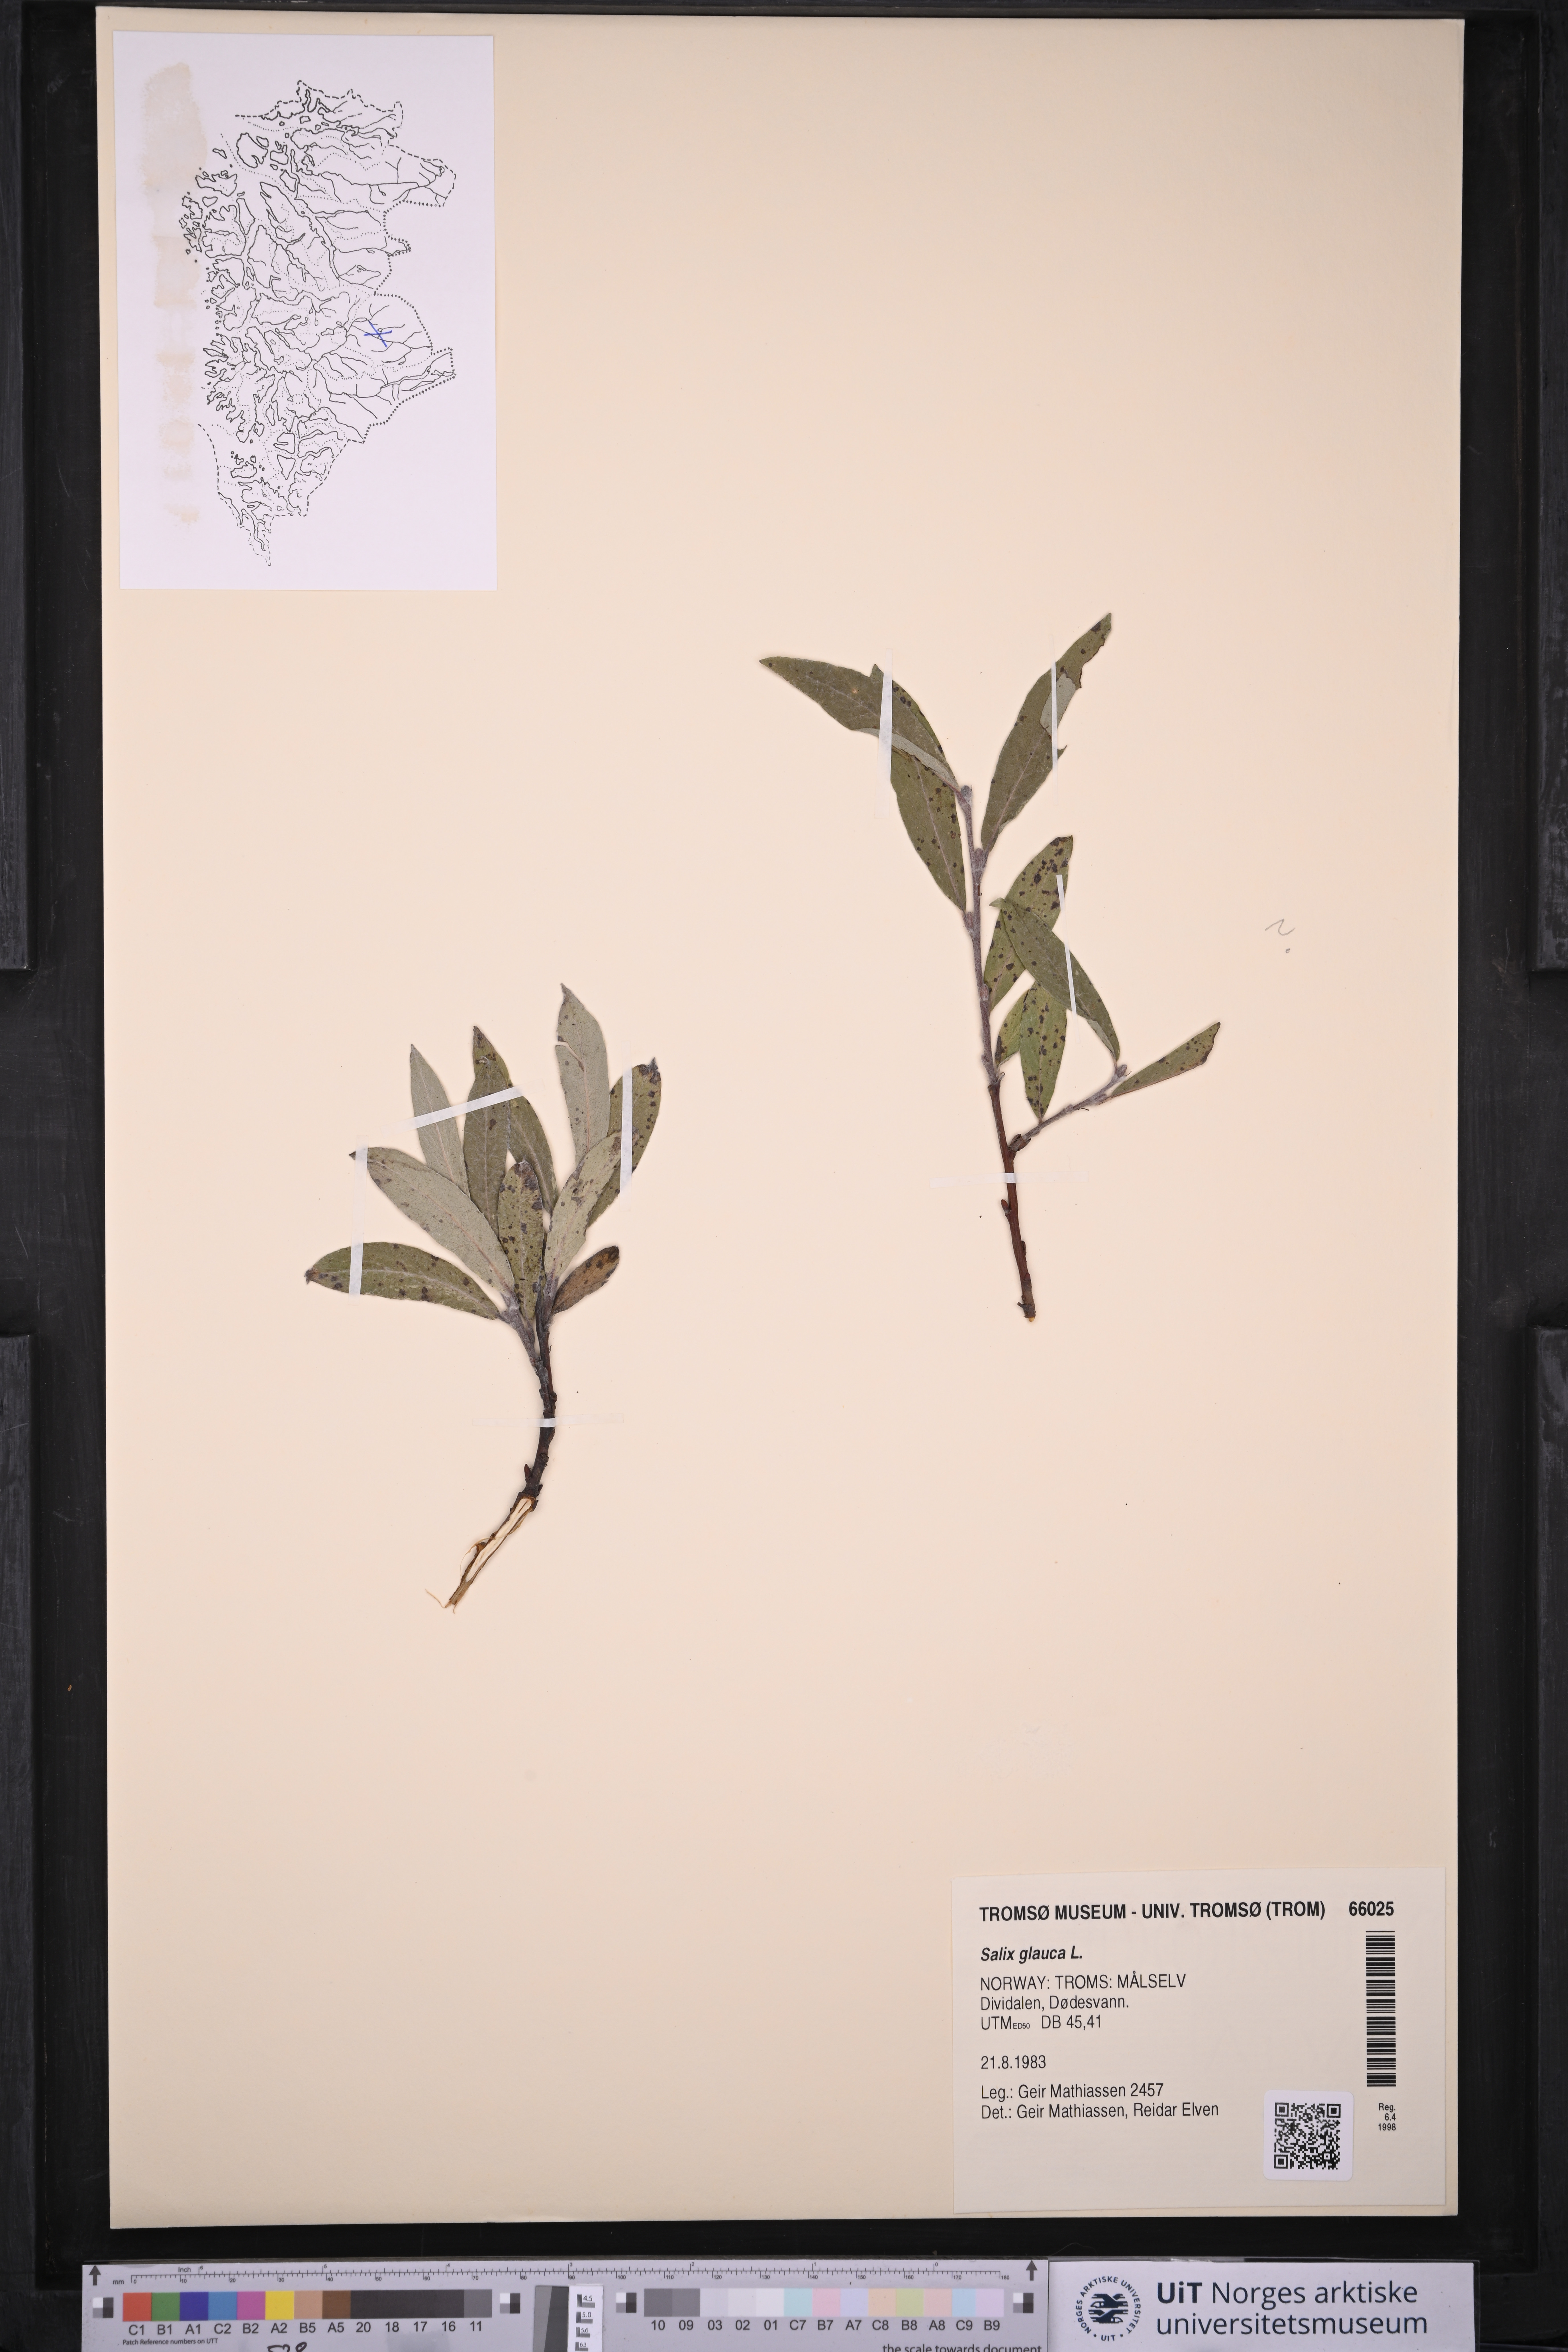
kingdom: Plantae
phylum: Tracheophyta
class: Magnoliopsida
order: Malpighiales
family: Salicaceae
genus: Salix
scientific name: Salix glauca
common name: Glaucous willow
